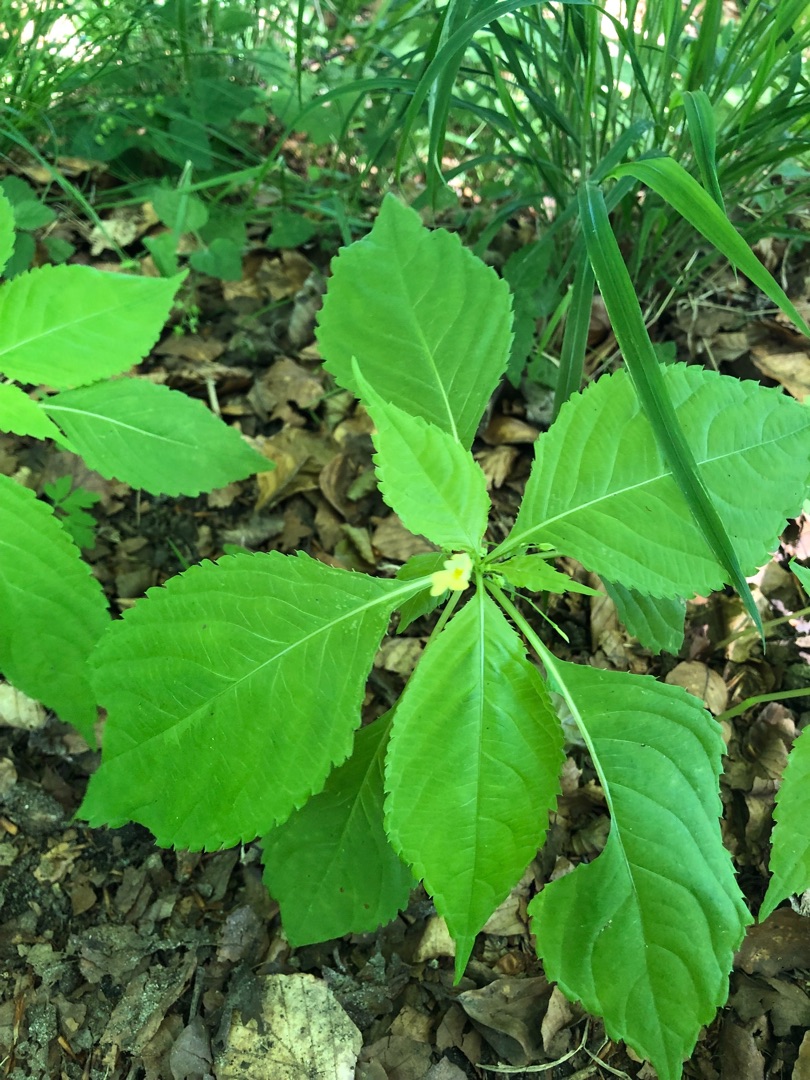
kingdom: Plantae
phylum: Tracheophyta
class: Magnoliopsida
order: Ericales
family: Balsaminaceae
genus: Impatiens
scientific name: Impatiens parviflora
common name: Småblomstret balsamin
